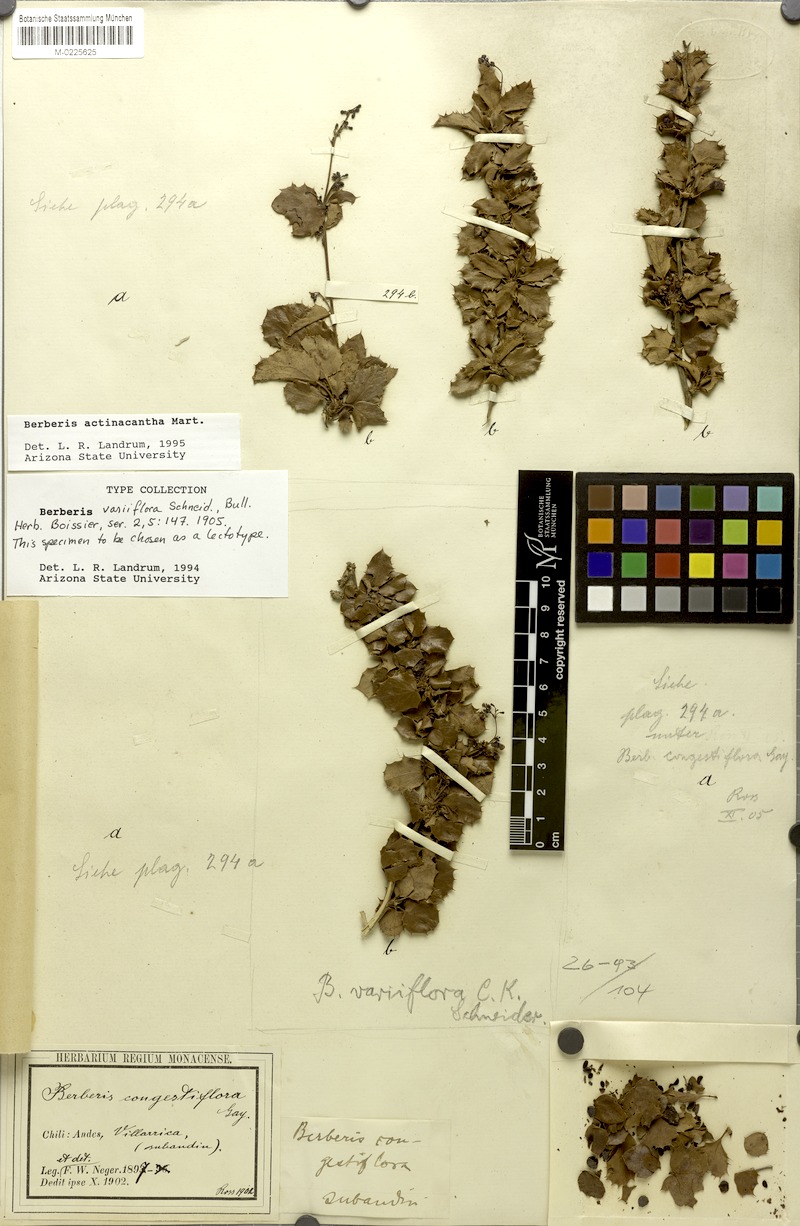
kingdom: Plantae
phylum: Tracheophyta
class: Magnoliopsida
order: Ranunculales
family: Berberidaceae
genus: Berberis
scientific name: Berberis actinacantha
